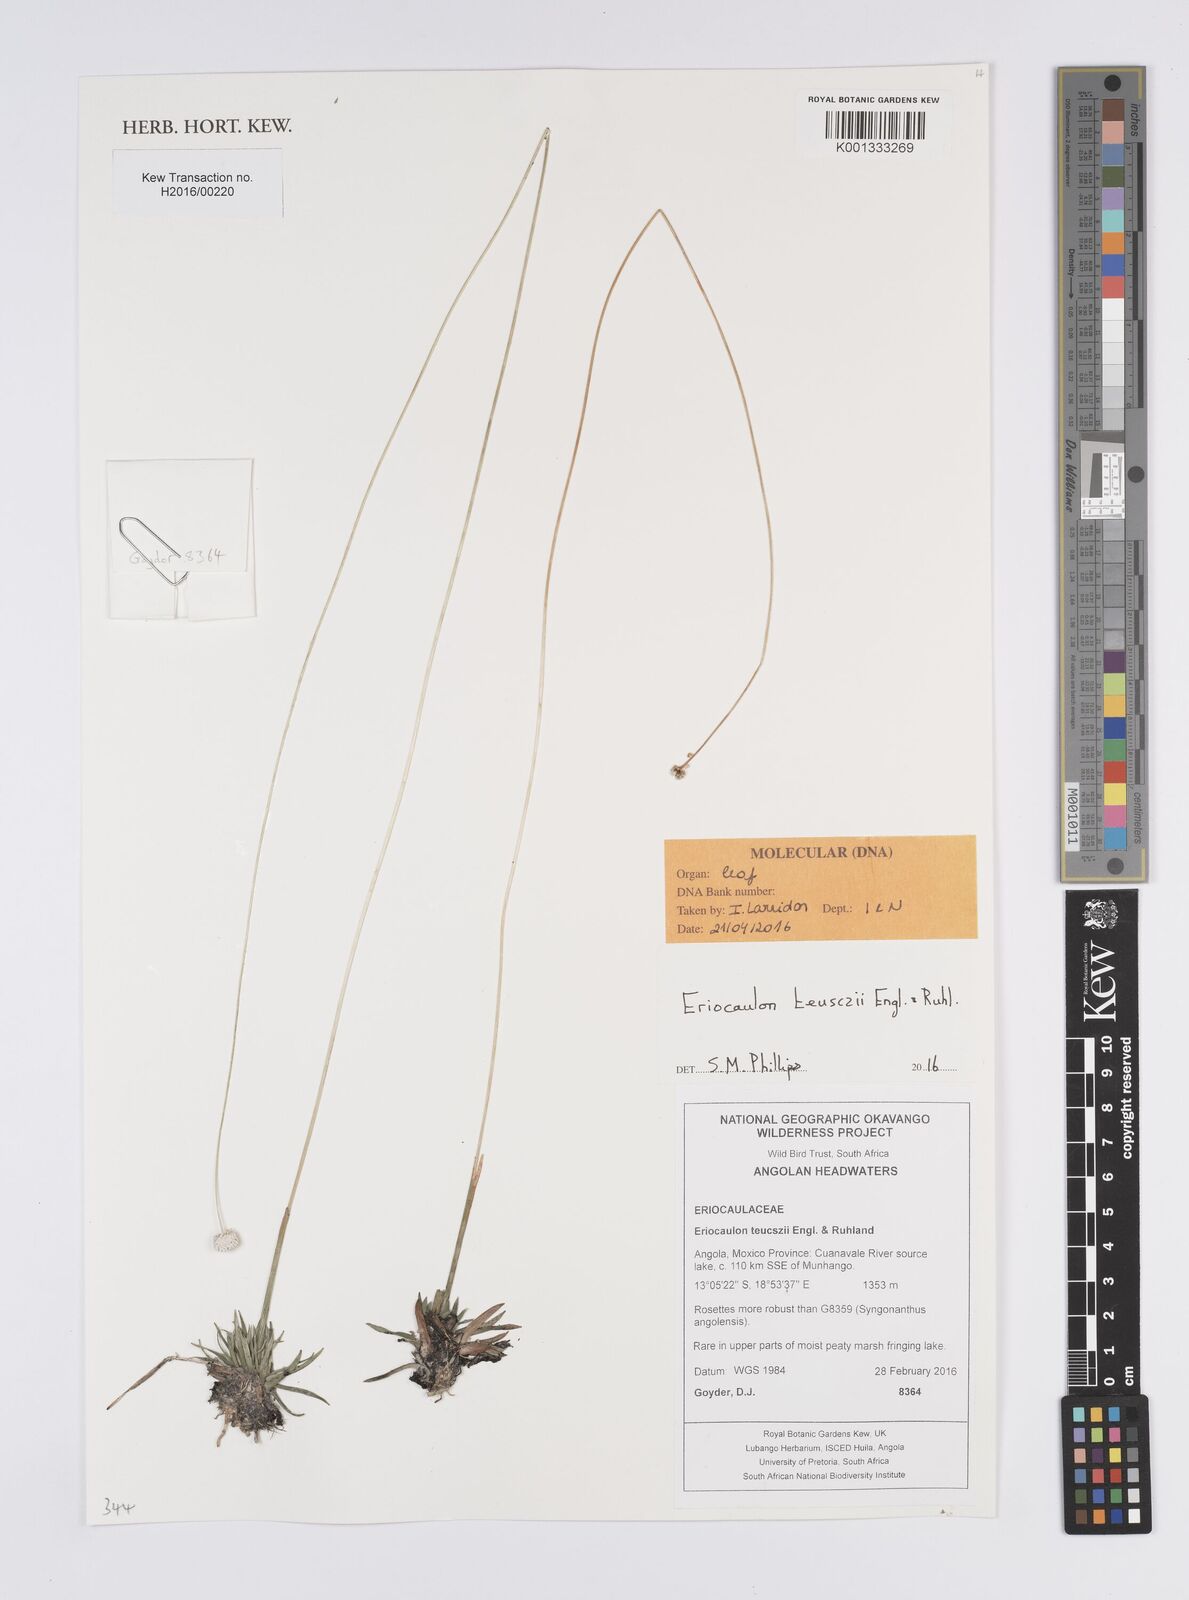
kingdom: Plantae
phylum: Tracheophyta
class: Liliopsida
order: Poales
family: Eriocaulaceae
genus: Eriocaulon
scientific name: Eriocaulon teusczii
